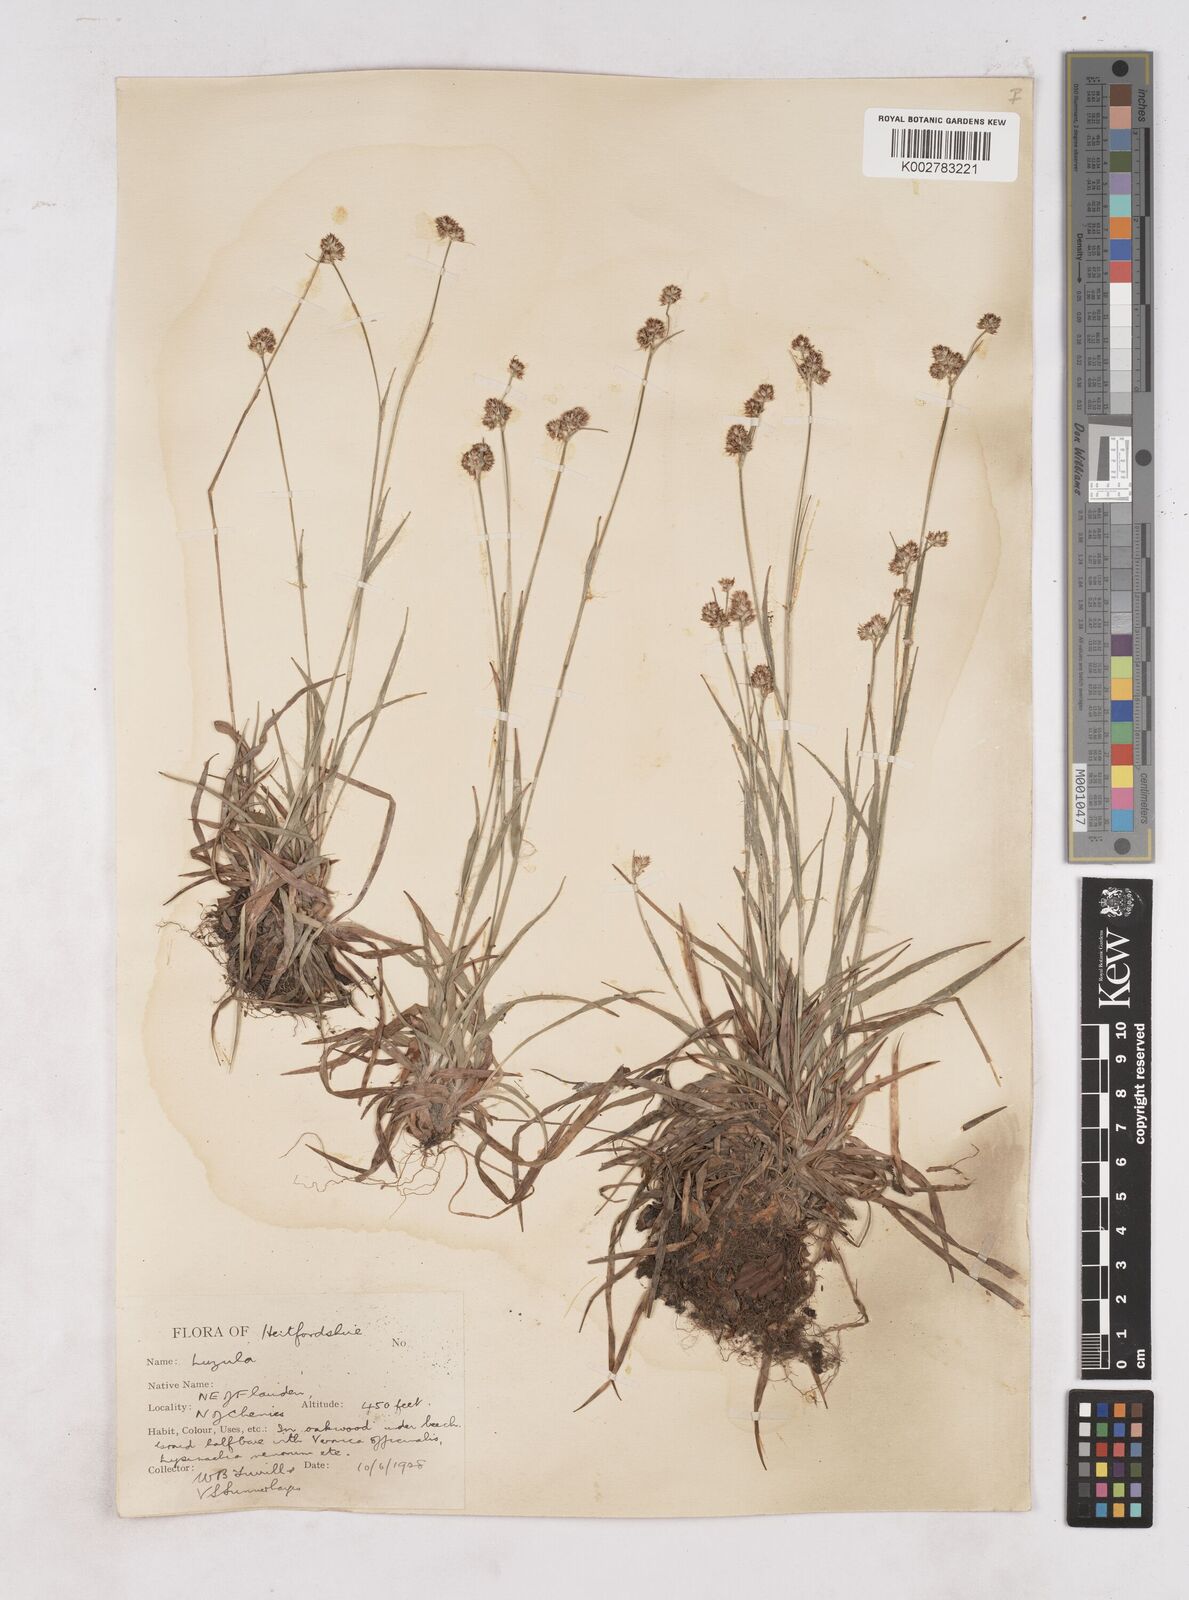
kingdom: Plantae
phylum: Tracheophyta
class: Liliopsida
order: Poales
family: Juncaceae
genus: Luzula
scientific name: Luzula multiflora
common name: Heath wood-rush
